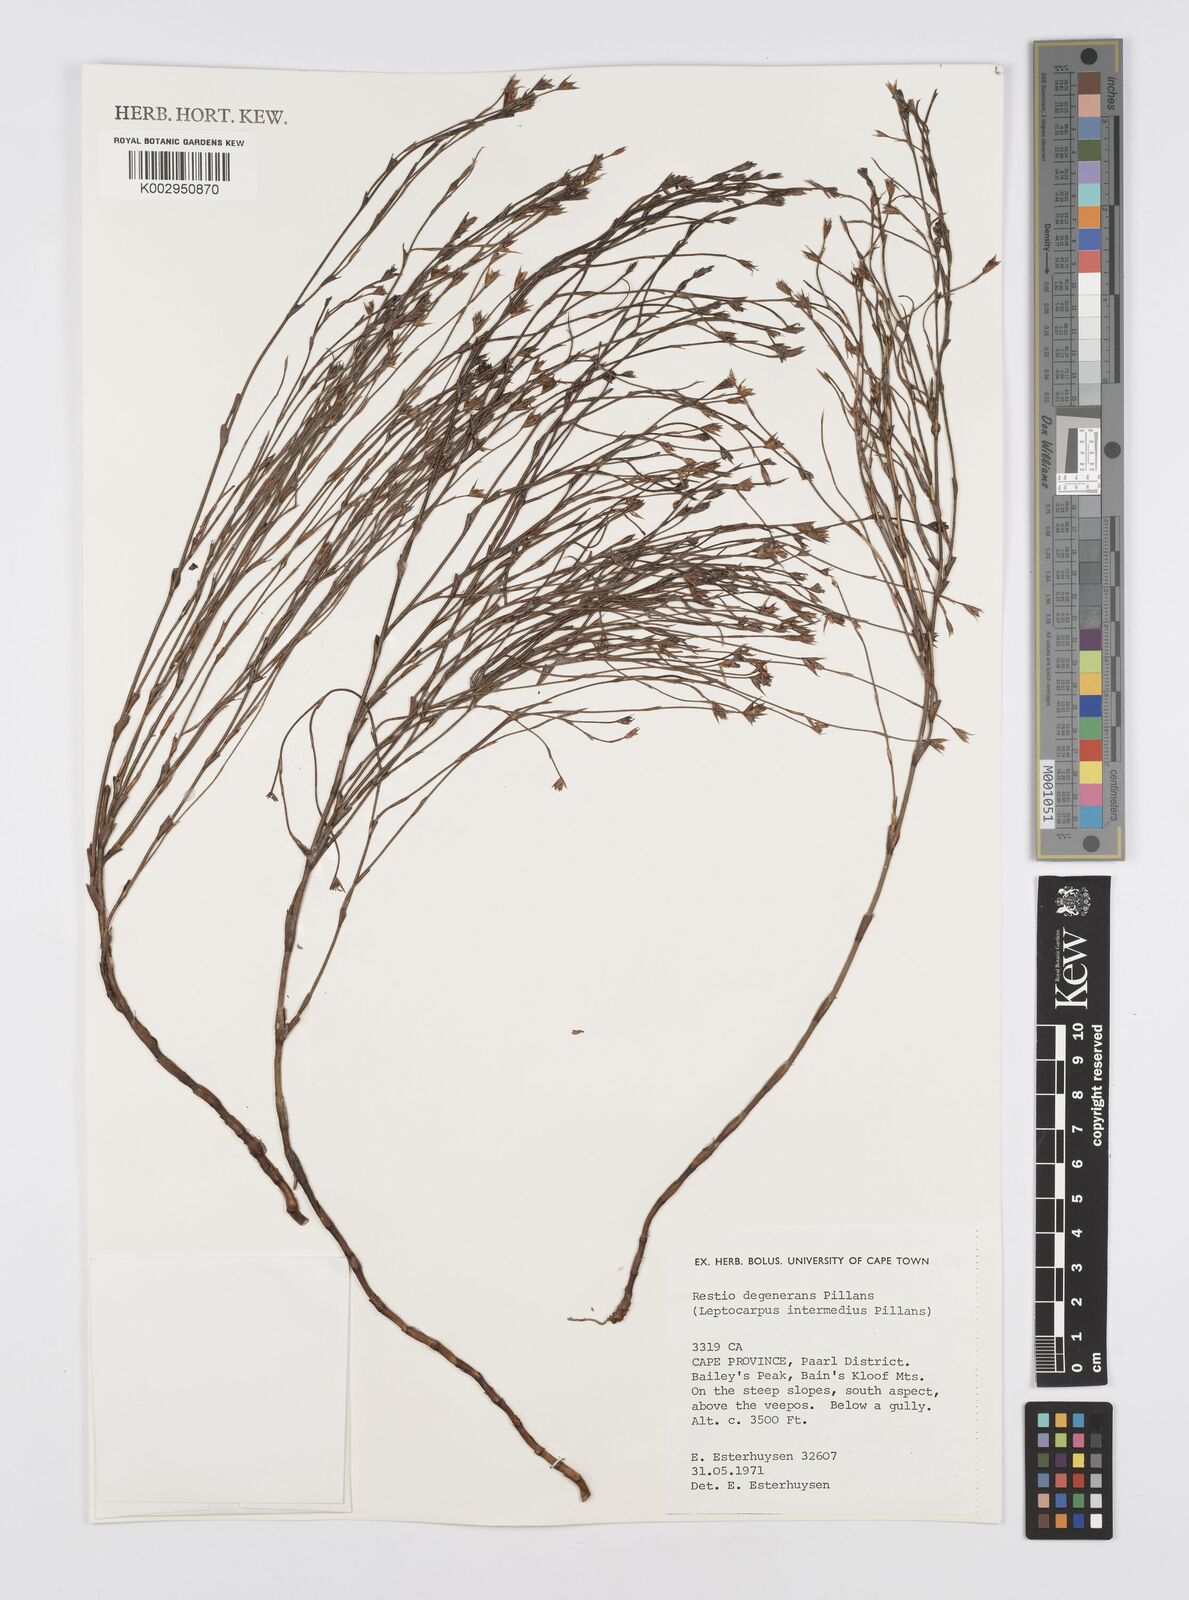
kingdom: Plantae
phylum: Tracheophyta
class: Liliopsida
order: Poales
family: Restionaceae
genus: Restio
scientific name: Restio degenerans
